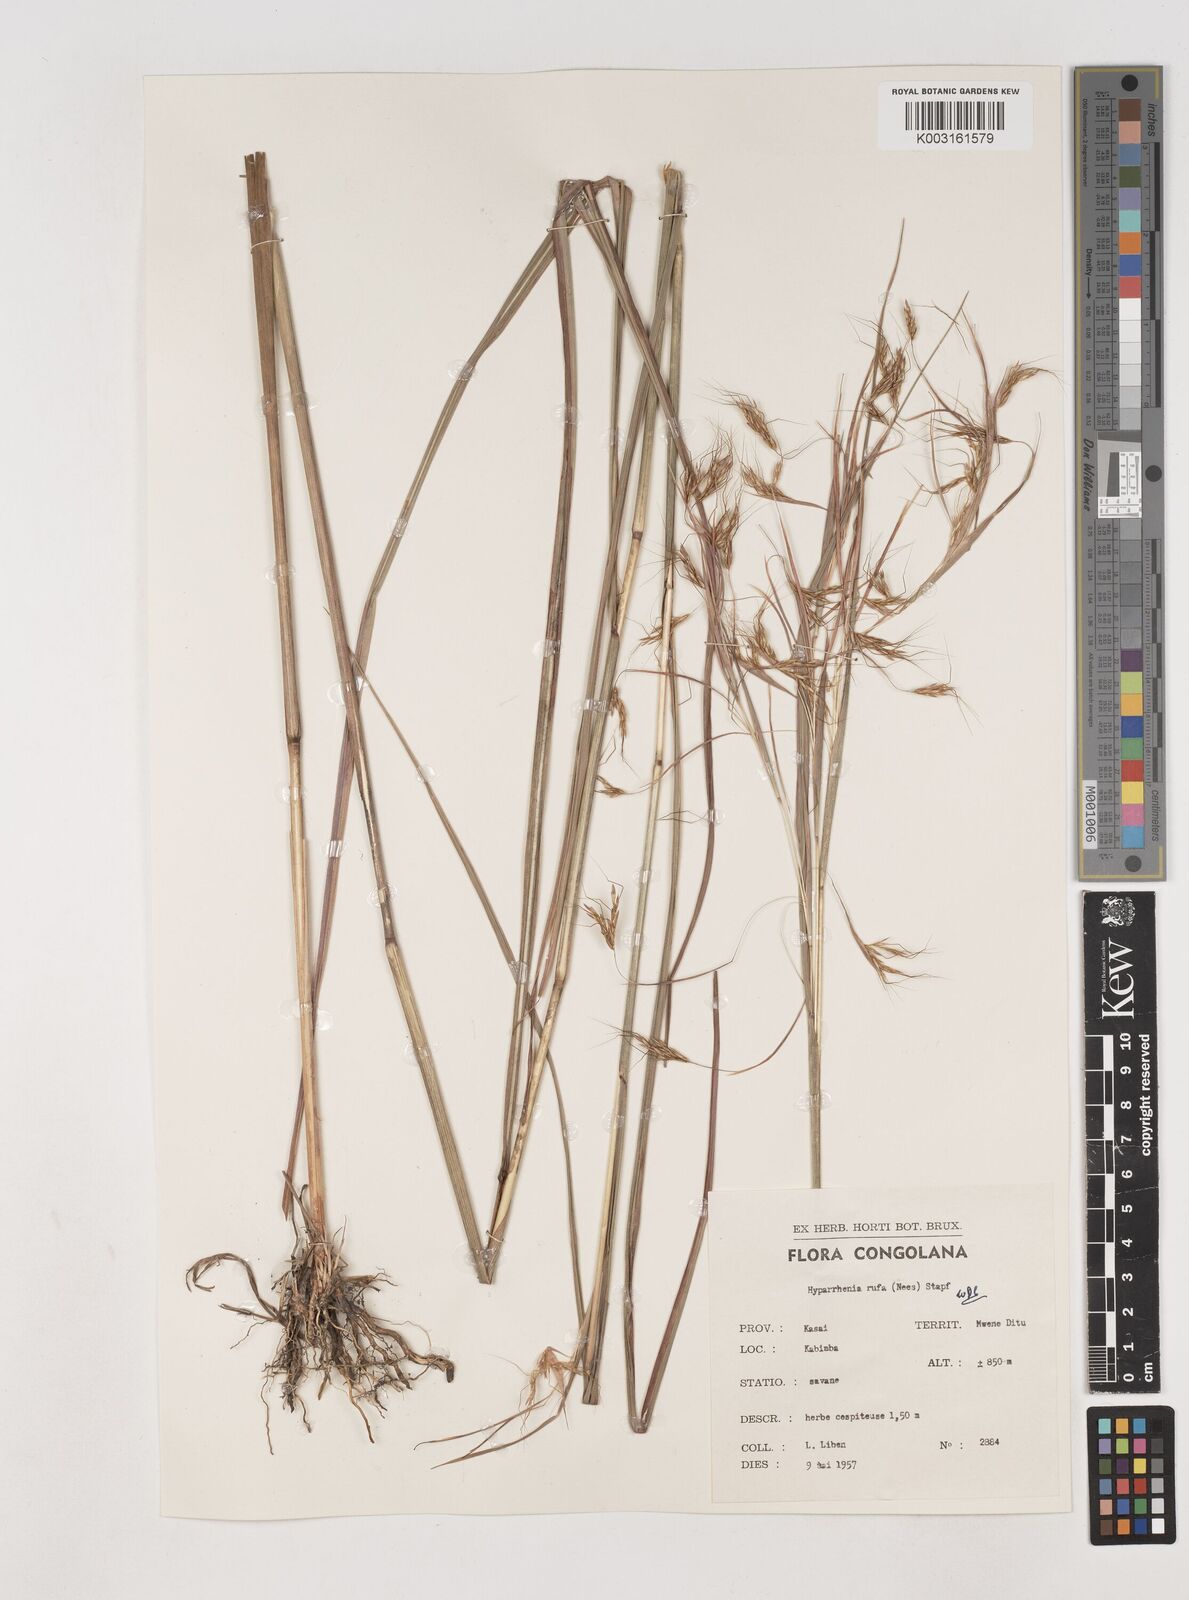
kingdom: Plantae
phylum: Tracheophyta
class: Liliopsida
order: Poales
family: Poaceae
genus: Hyparrhenia
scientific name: Hyparrhenia rufa
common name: Jaraguagrass
